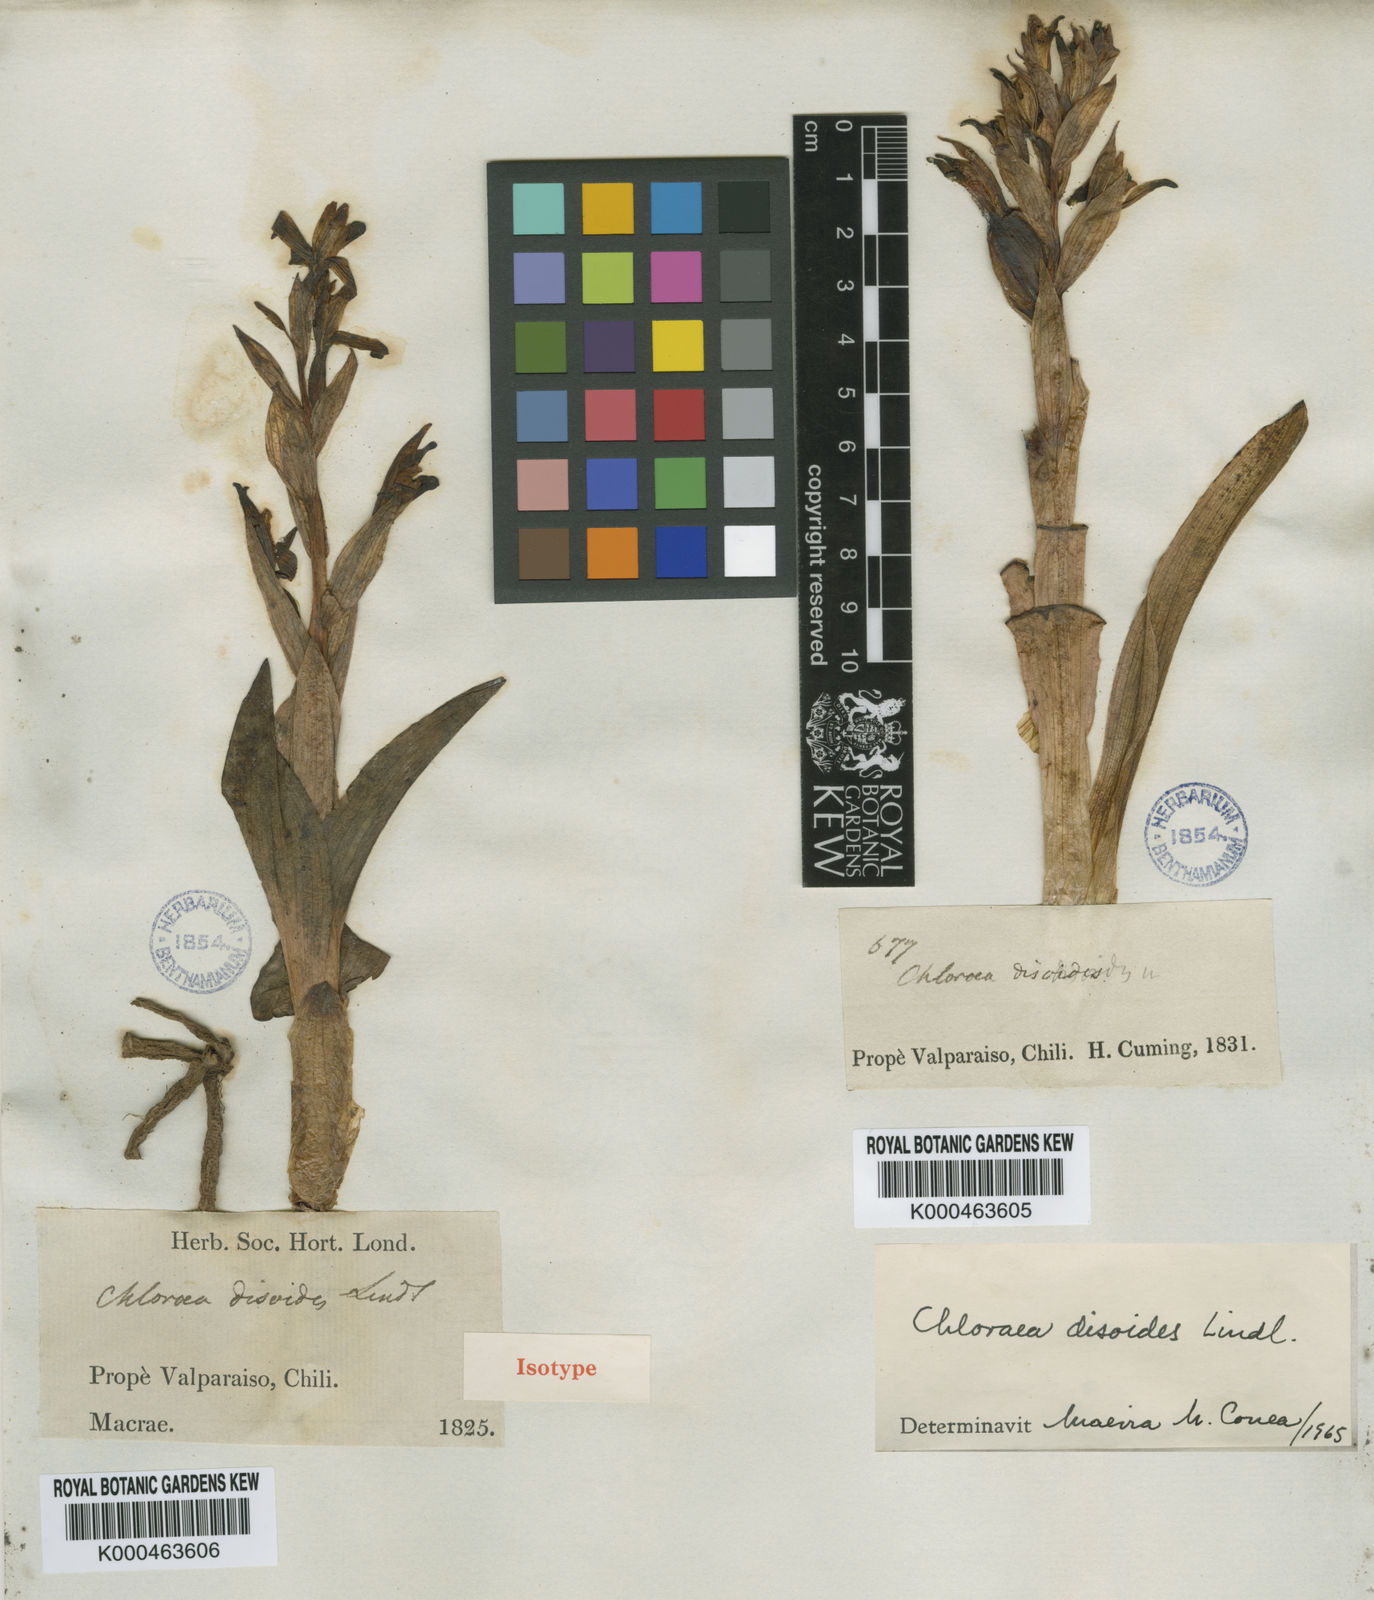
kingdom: Plantae
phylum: Tracheophyta
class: Liliopsida
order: Asparagales
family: Orchidaceae
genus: Chloraea
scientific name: Chloraea disoides
